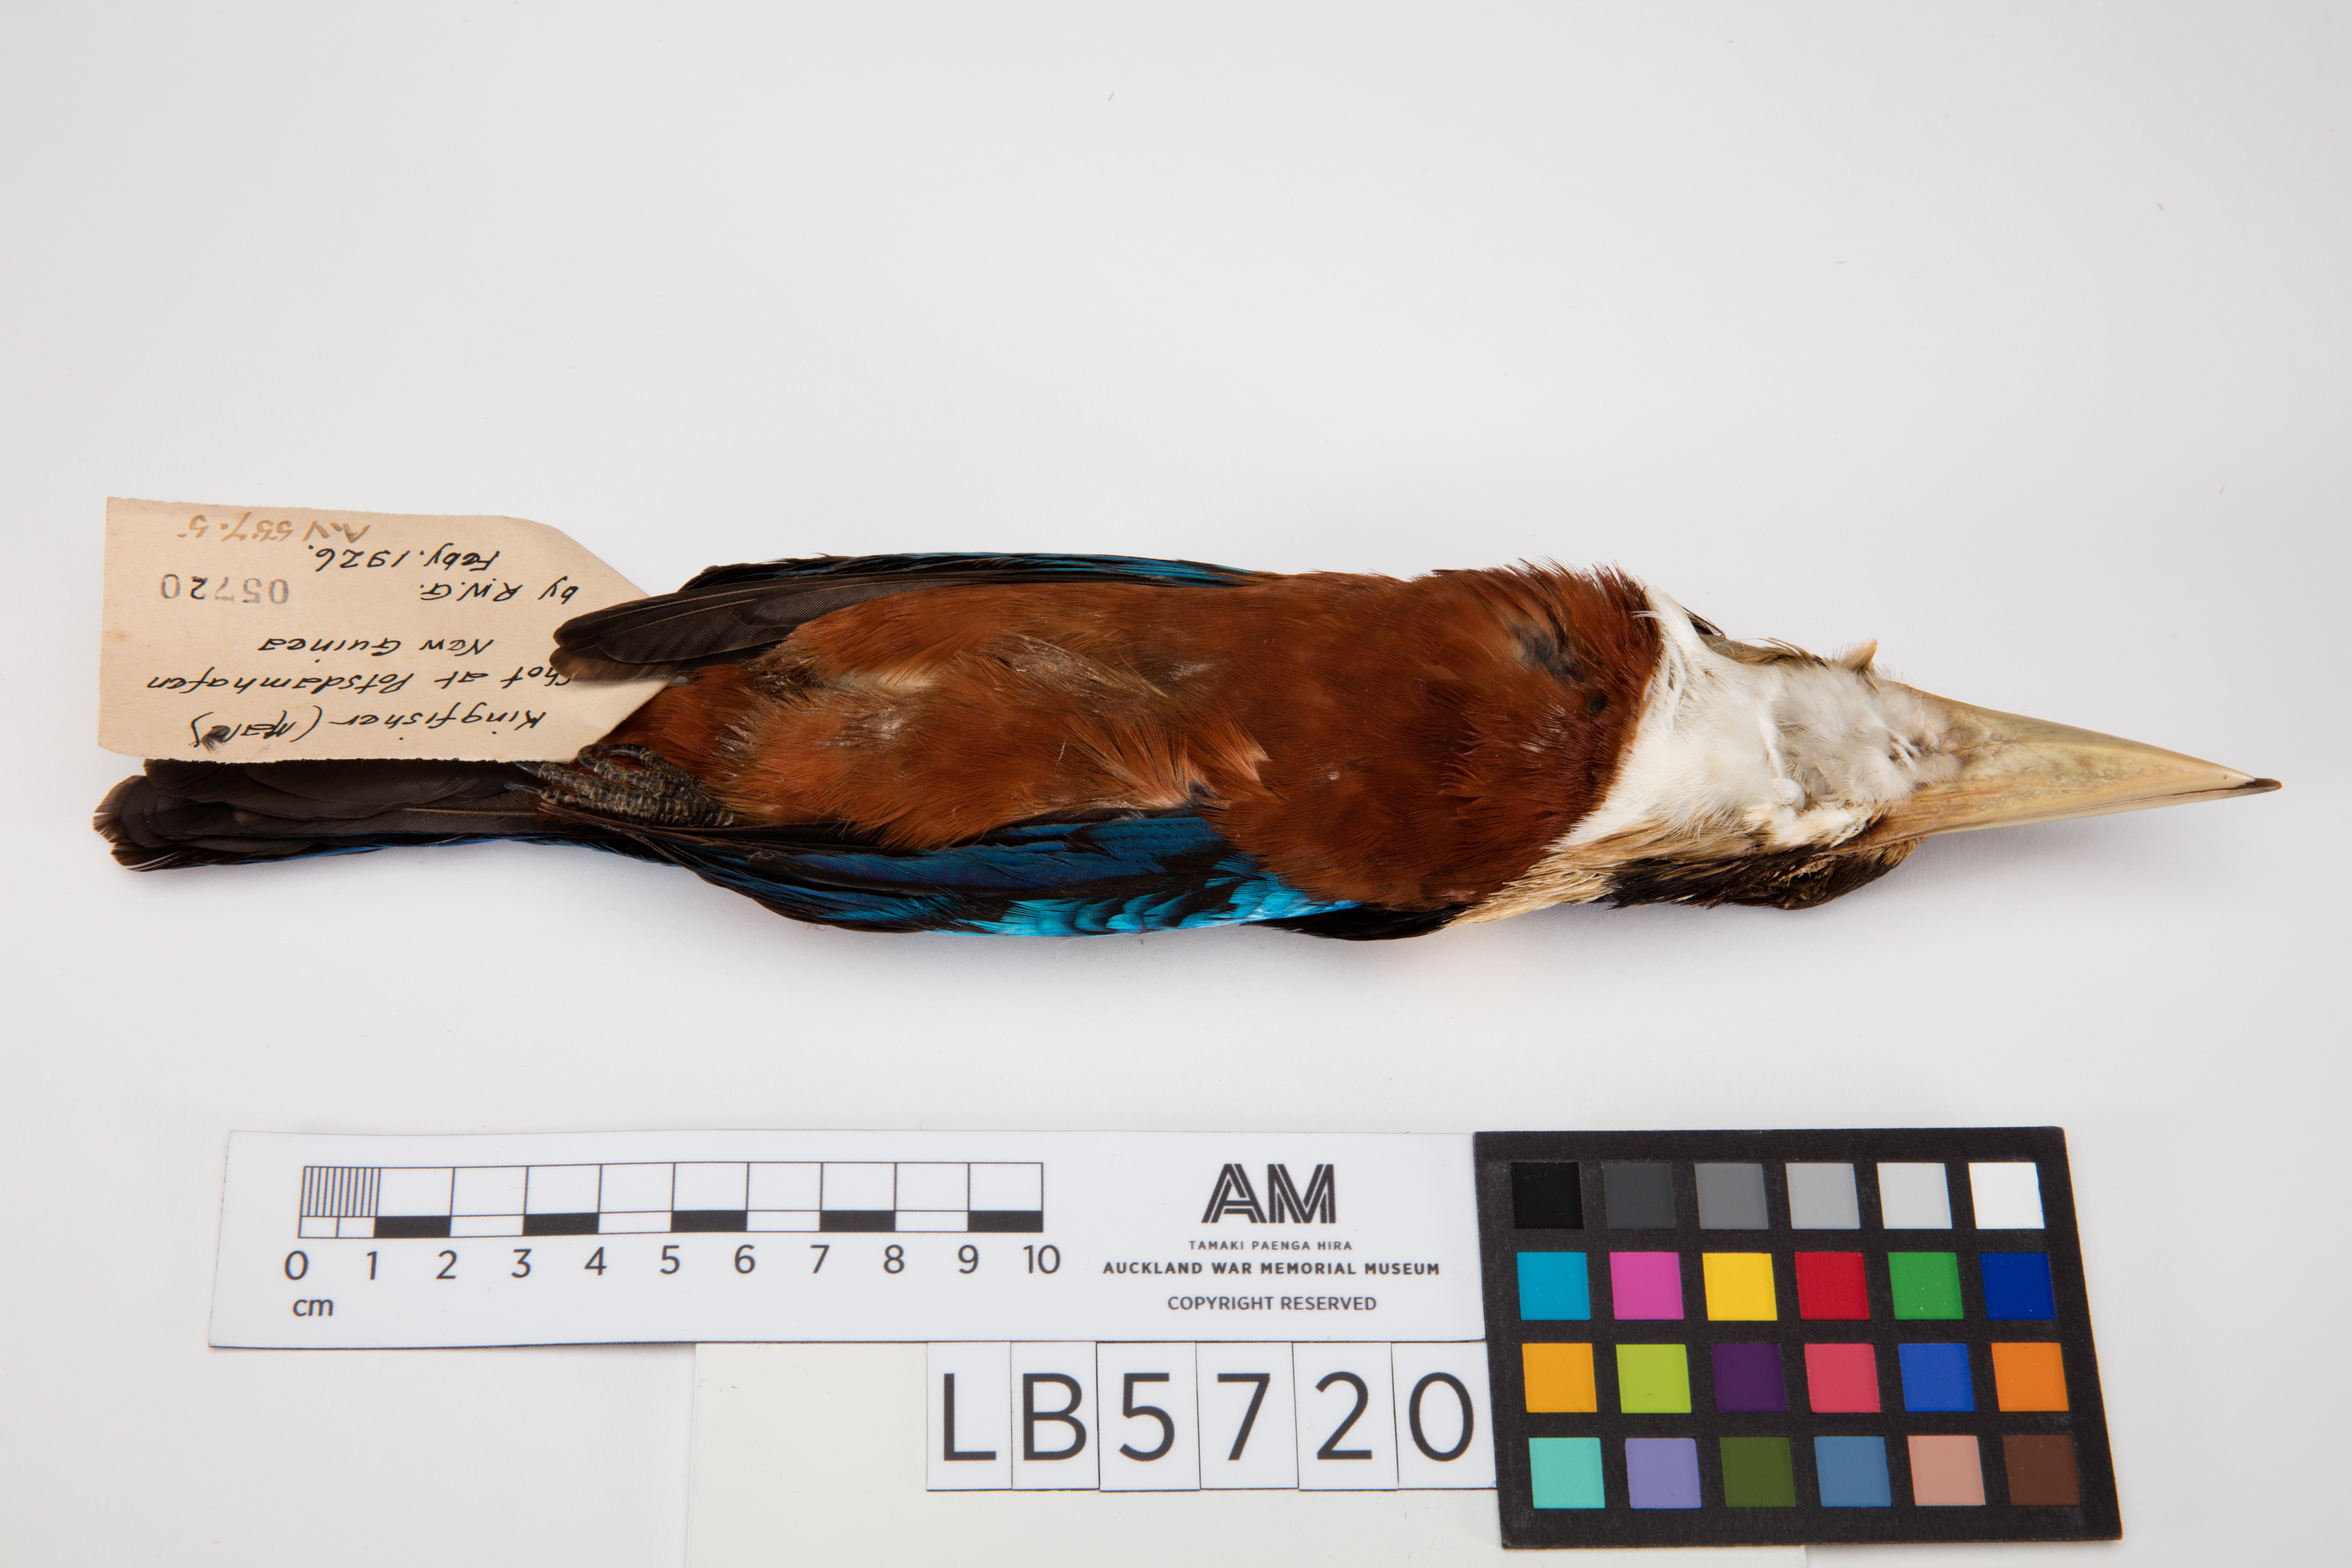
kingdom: Animalia
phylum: Chordata
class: Aves
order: Coraciiformes
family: Alcedinidae
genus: Dacelo
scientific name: Dacelo gaudichaud
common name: Rufous-bellied kookaburra
